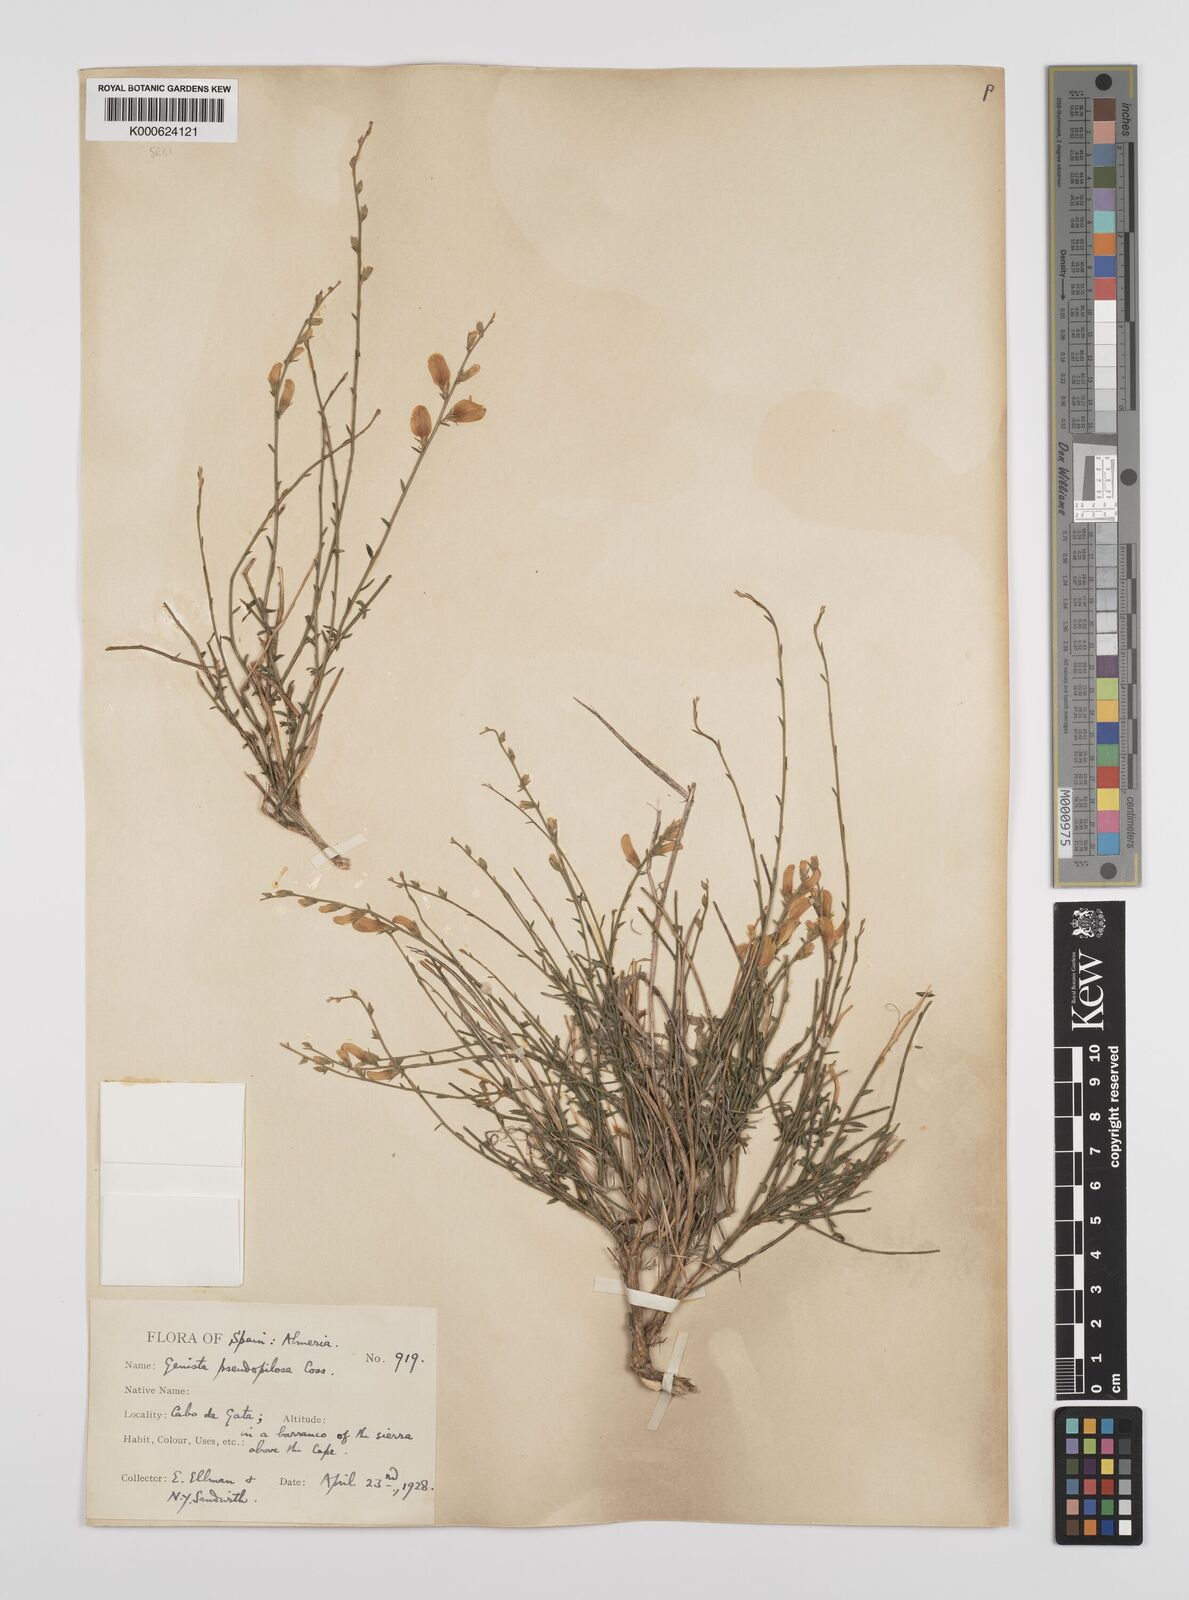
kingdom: Plantae
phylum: Tracheophyta
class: Magnoliopsida
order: Fabales
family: Fabaceae
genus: Genista
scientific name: Genista pseudopilosa
